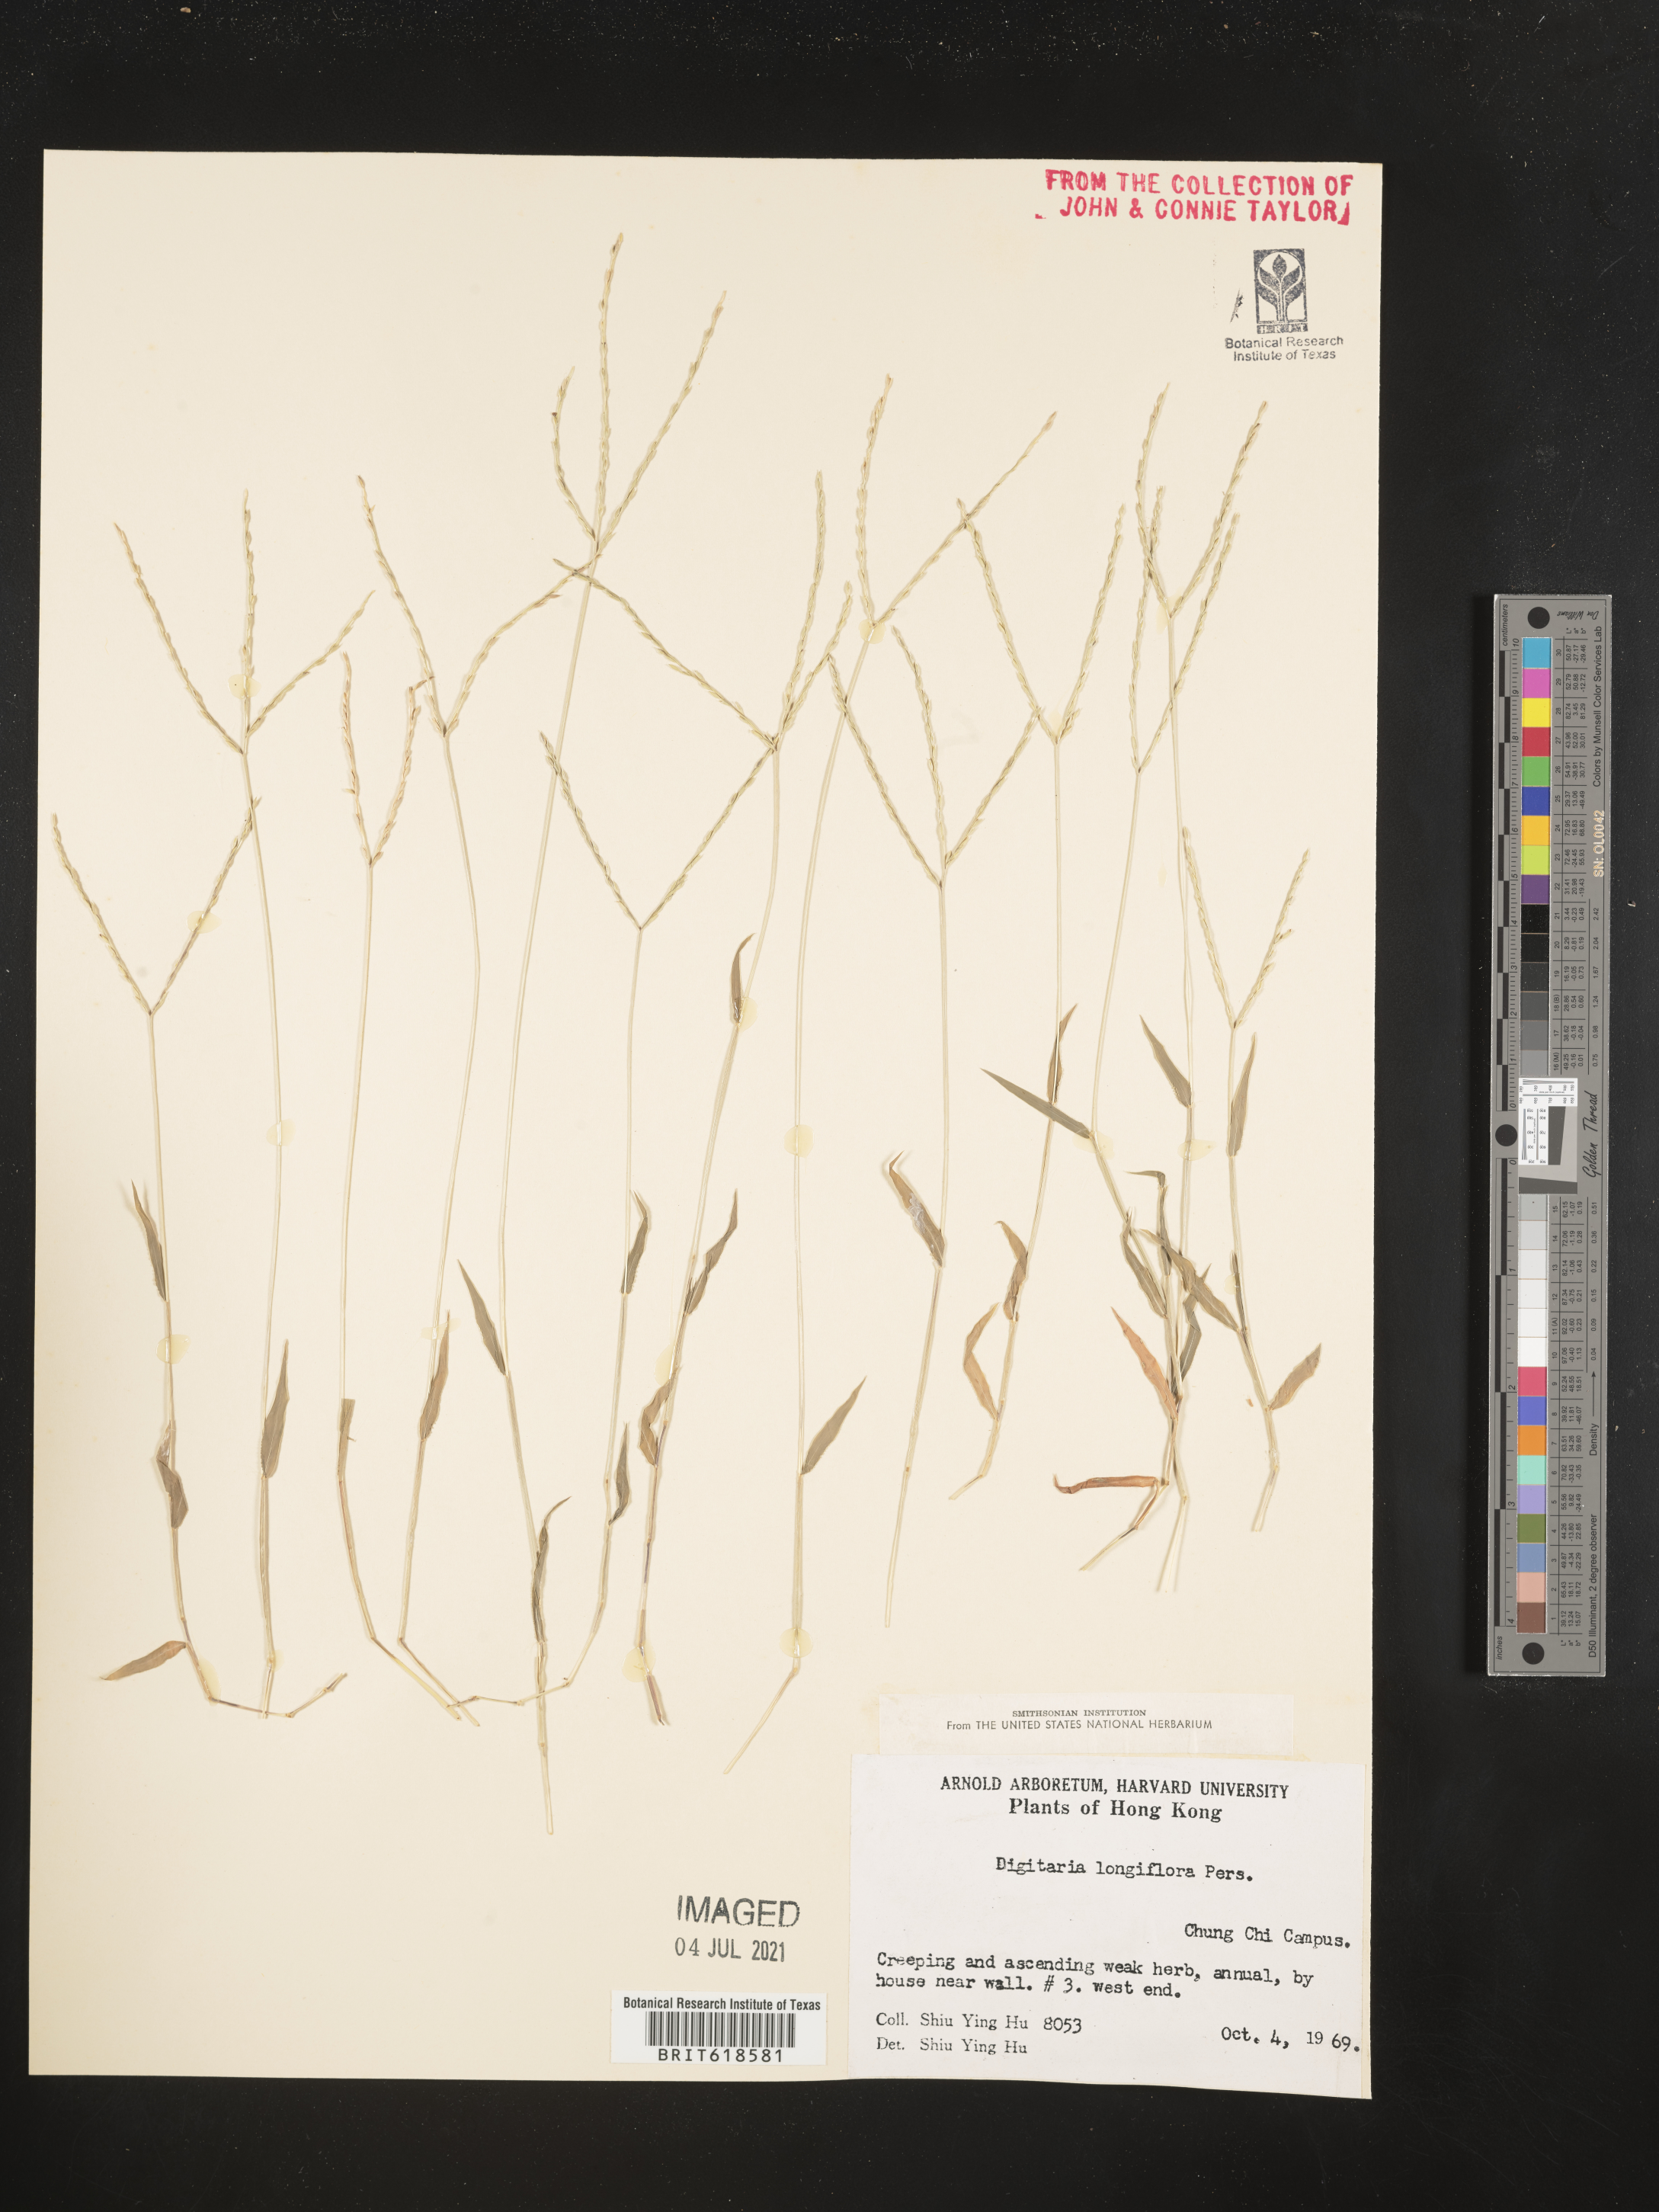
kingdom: Plantae
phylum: Tracheophyta
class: Liliopsida
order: Poales
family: Poaceae
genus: Digitaria
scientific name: Digitaria longiflora
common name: Wire crabgrass
